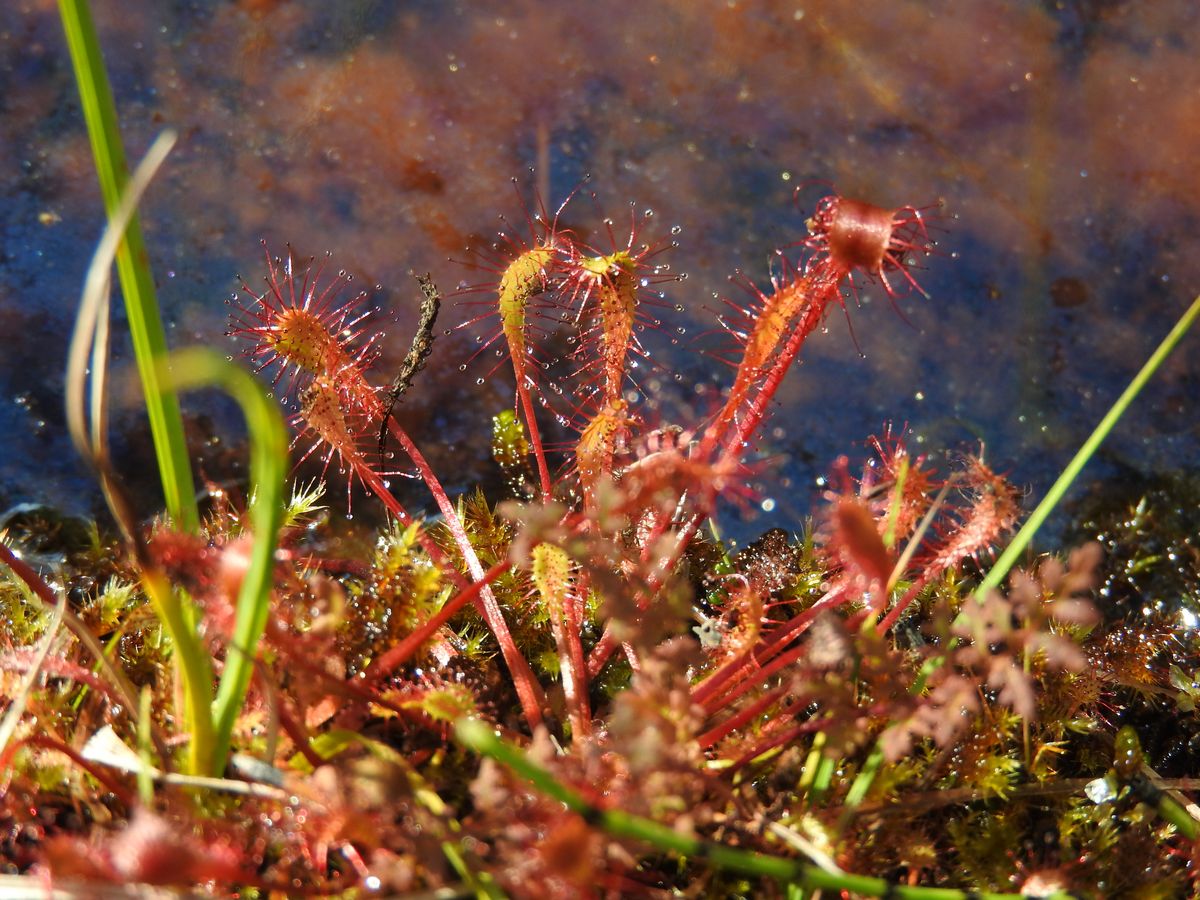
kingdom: Plantae
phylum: Tracheophyta
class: Magnoliopsida
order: Caryophyllales
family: Droseraceae
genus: Drosera
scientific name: Drosera anglica
